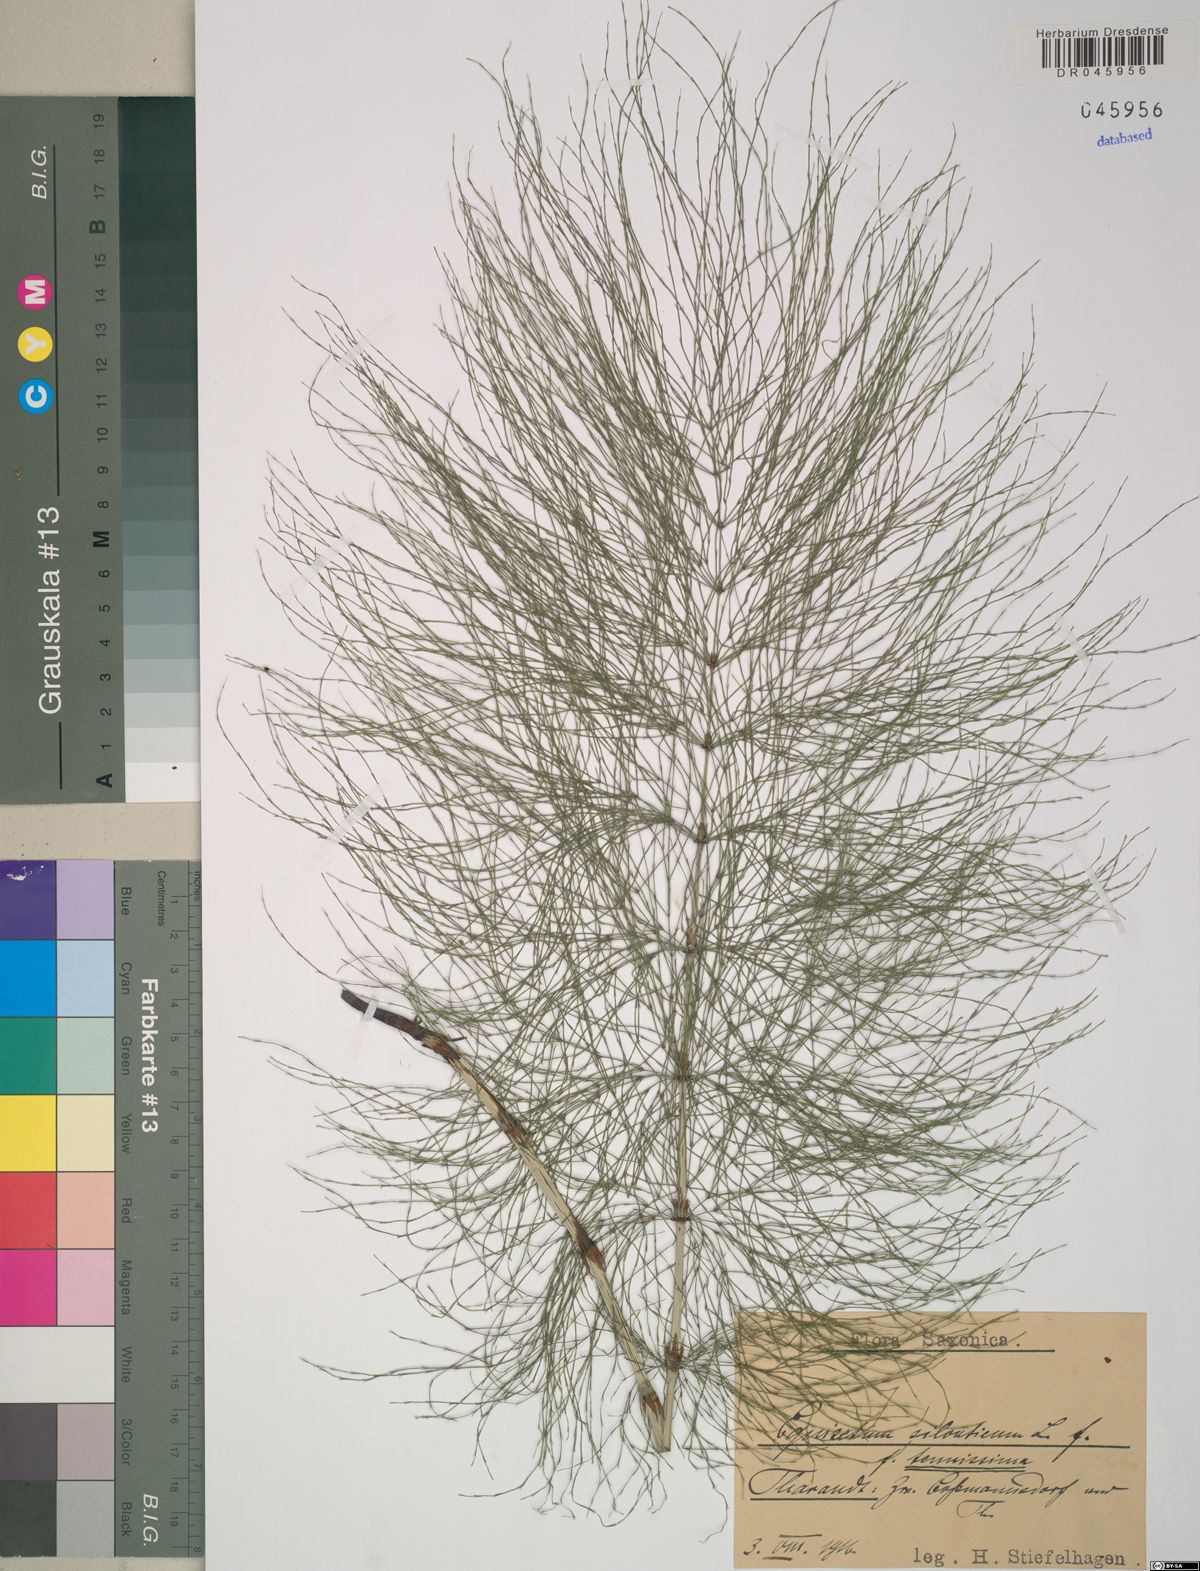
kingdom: Plantae
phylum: Tracheophyta
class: Polypodiopsida
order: Equisetales
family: Equisetaceae
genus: Equisetum
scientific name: Equisetum sylvaticum
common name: Wood horsetail
